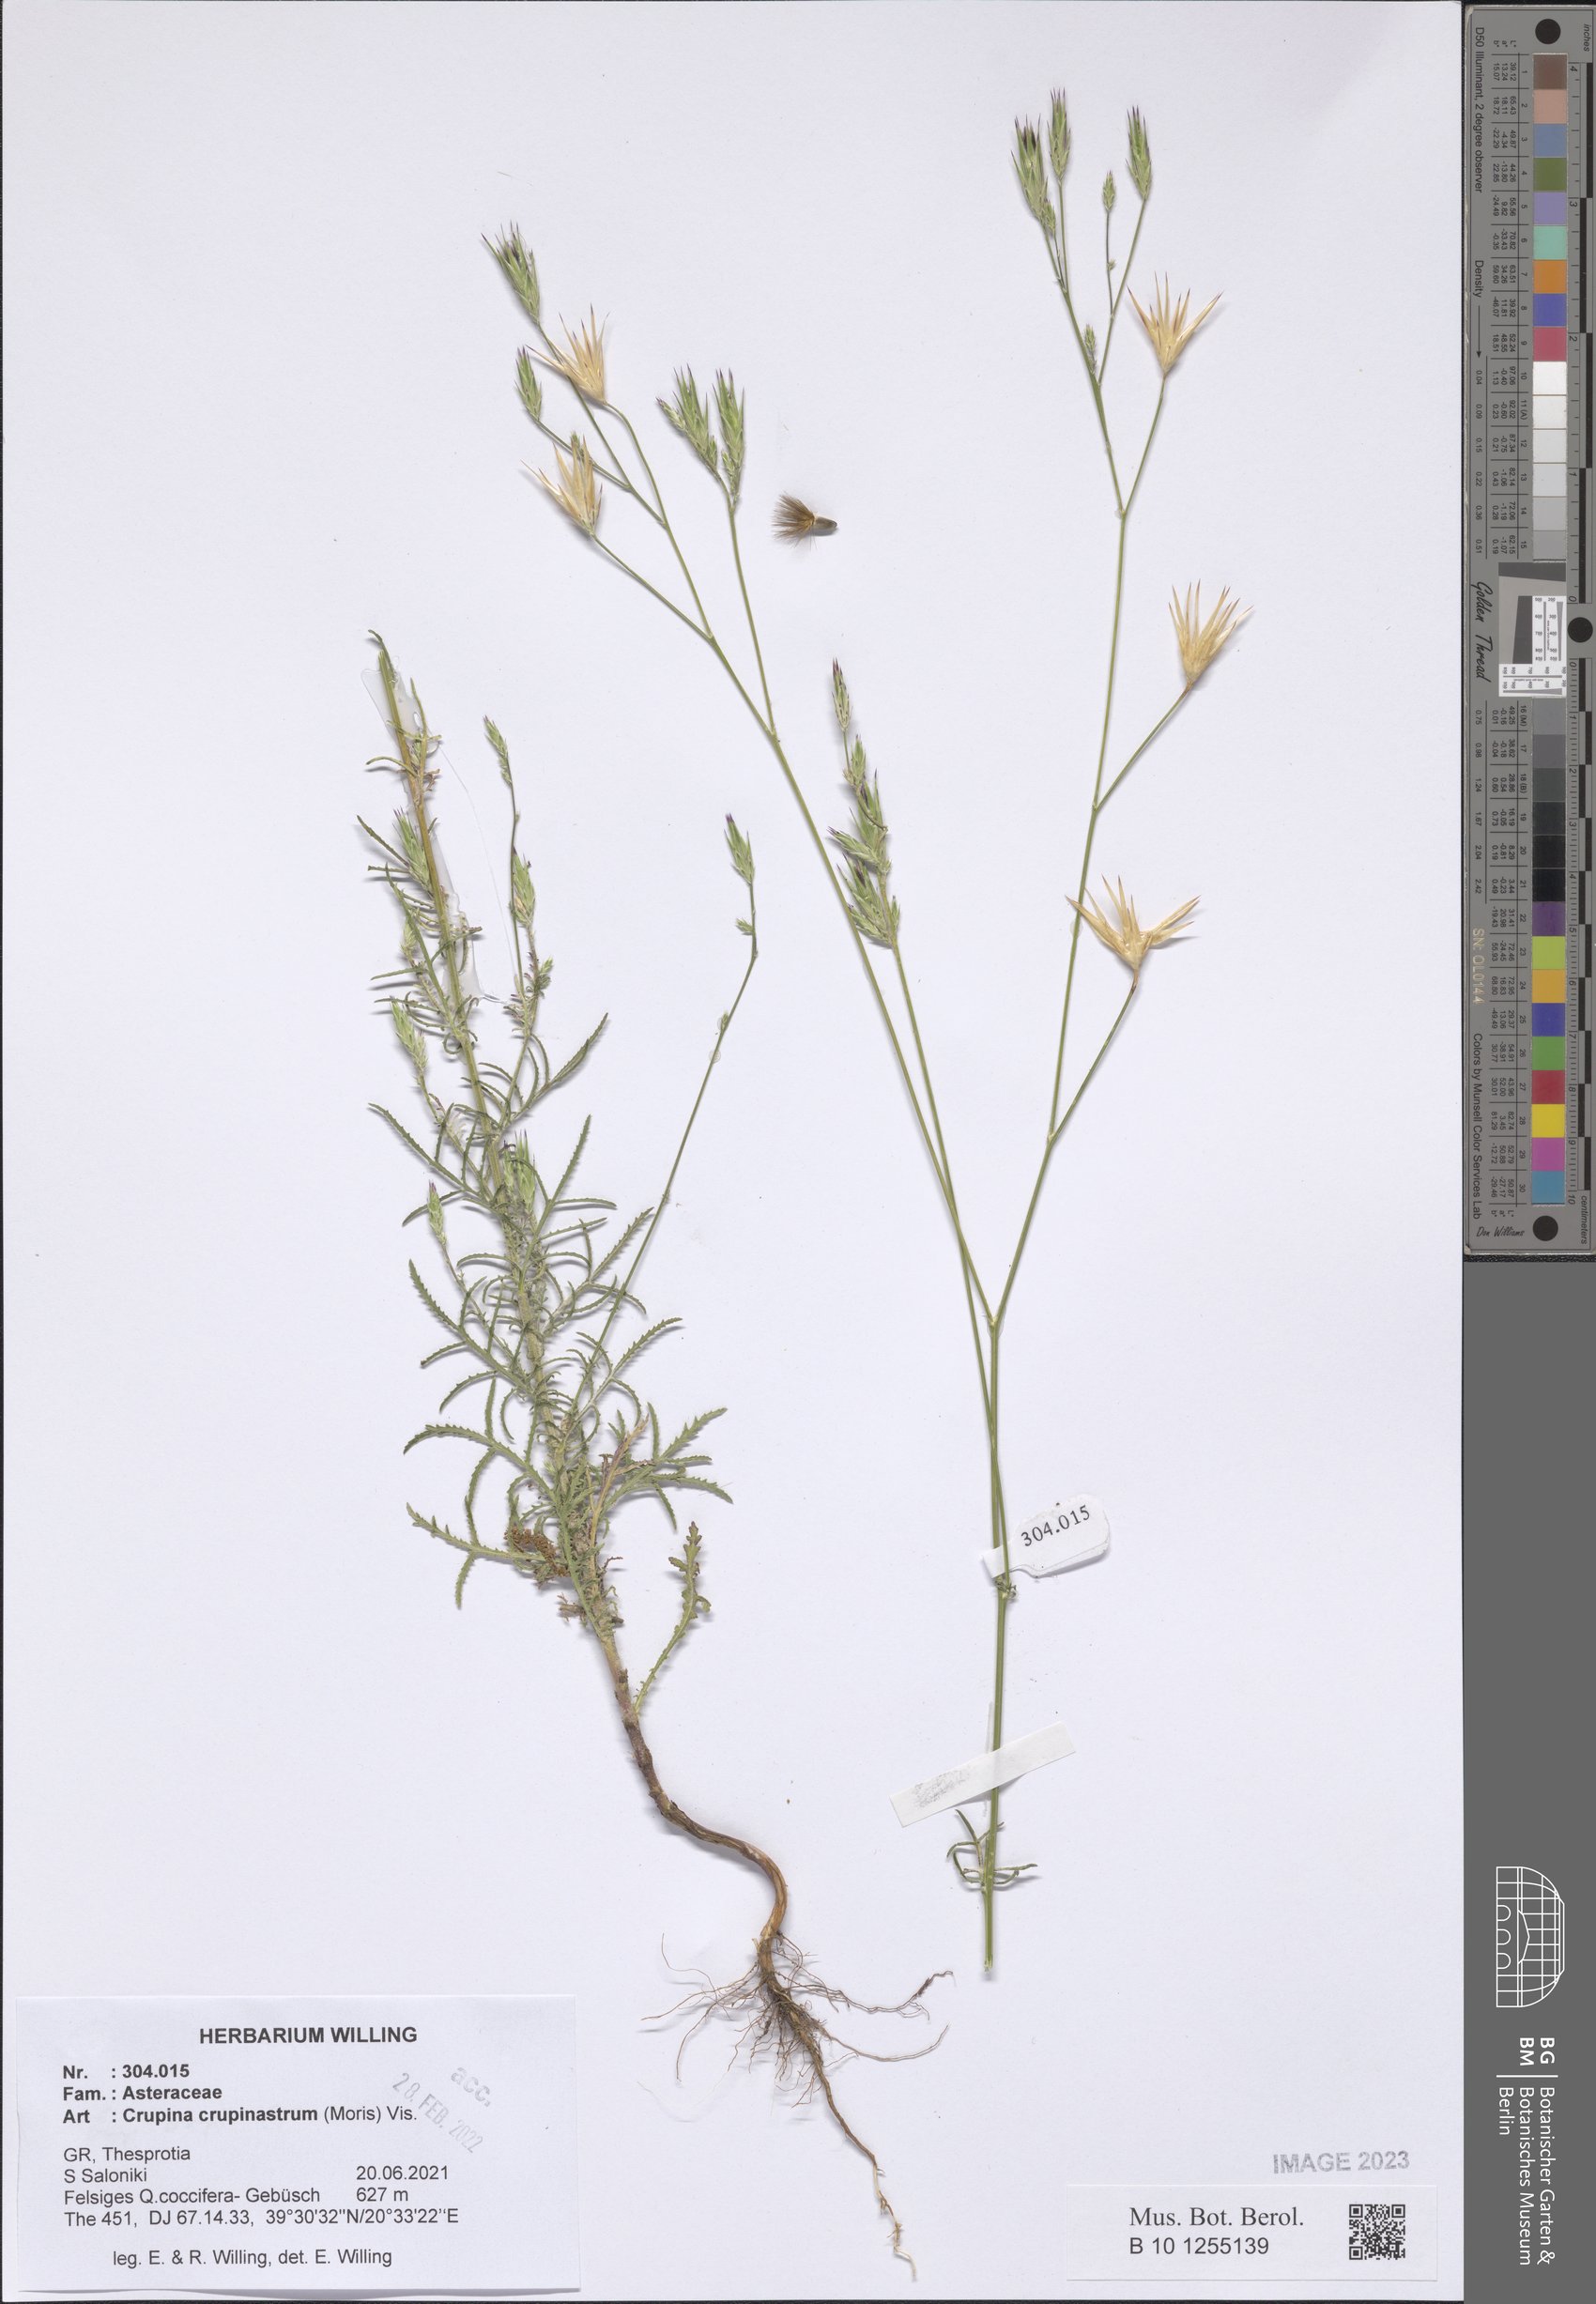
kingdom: Plantae
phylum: Tracheophyta
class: Magnoliopsida
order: Asterales
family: Asteraceae
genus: Crupina
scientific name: Crupina crupinastrum
